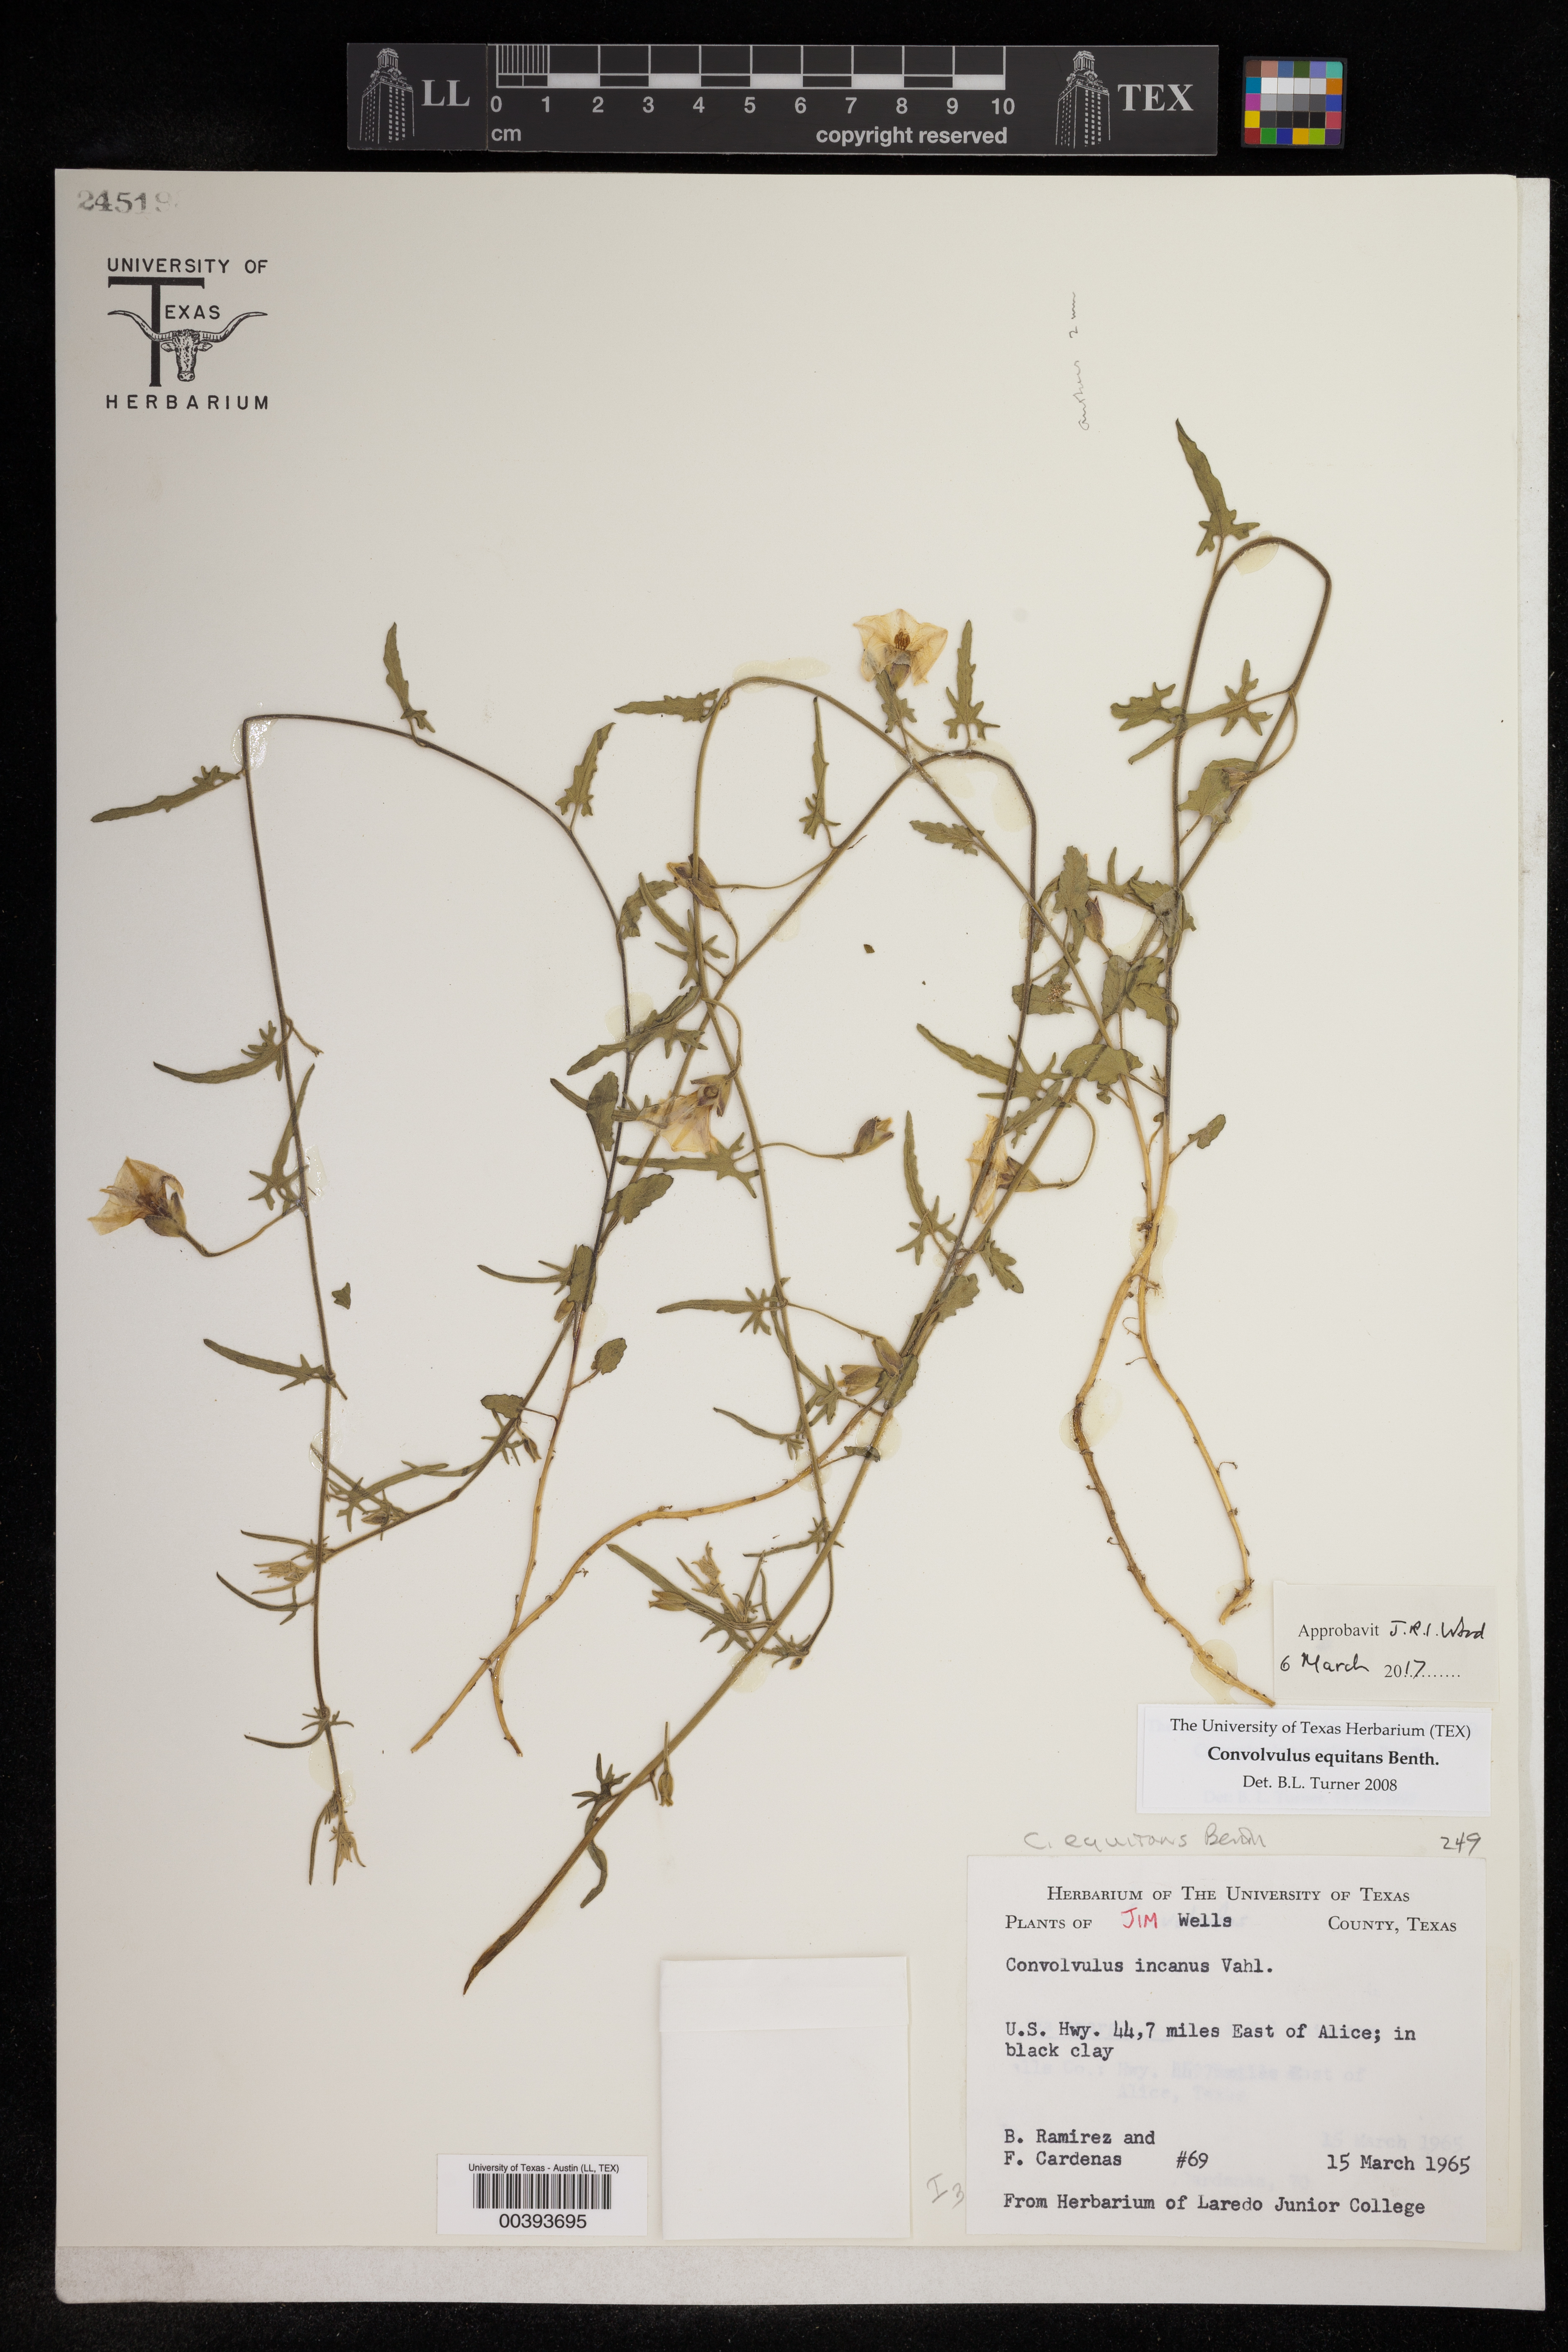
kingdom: Plantae
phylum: Tracheophyta
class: Magnoliopsida
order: Solanales
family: Convolvulaceae
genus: Convolvulus
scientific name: Convolvulus equitans
